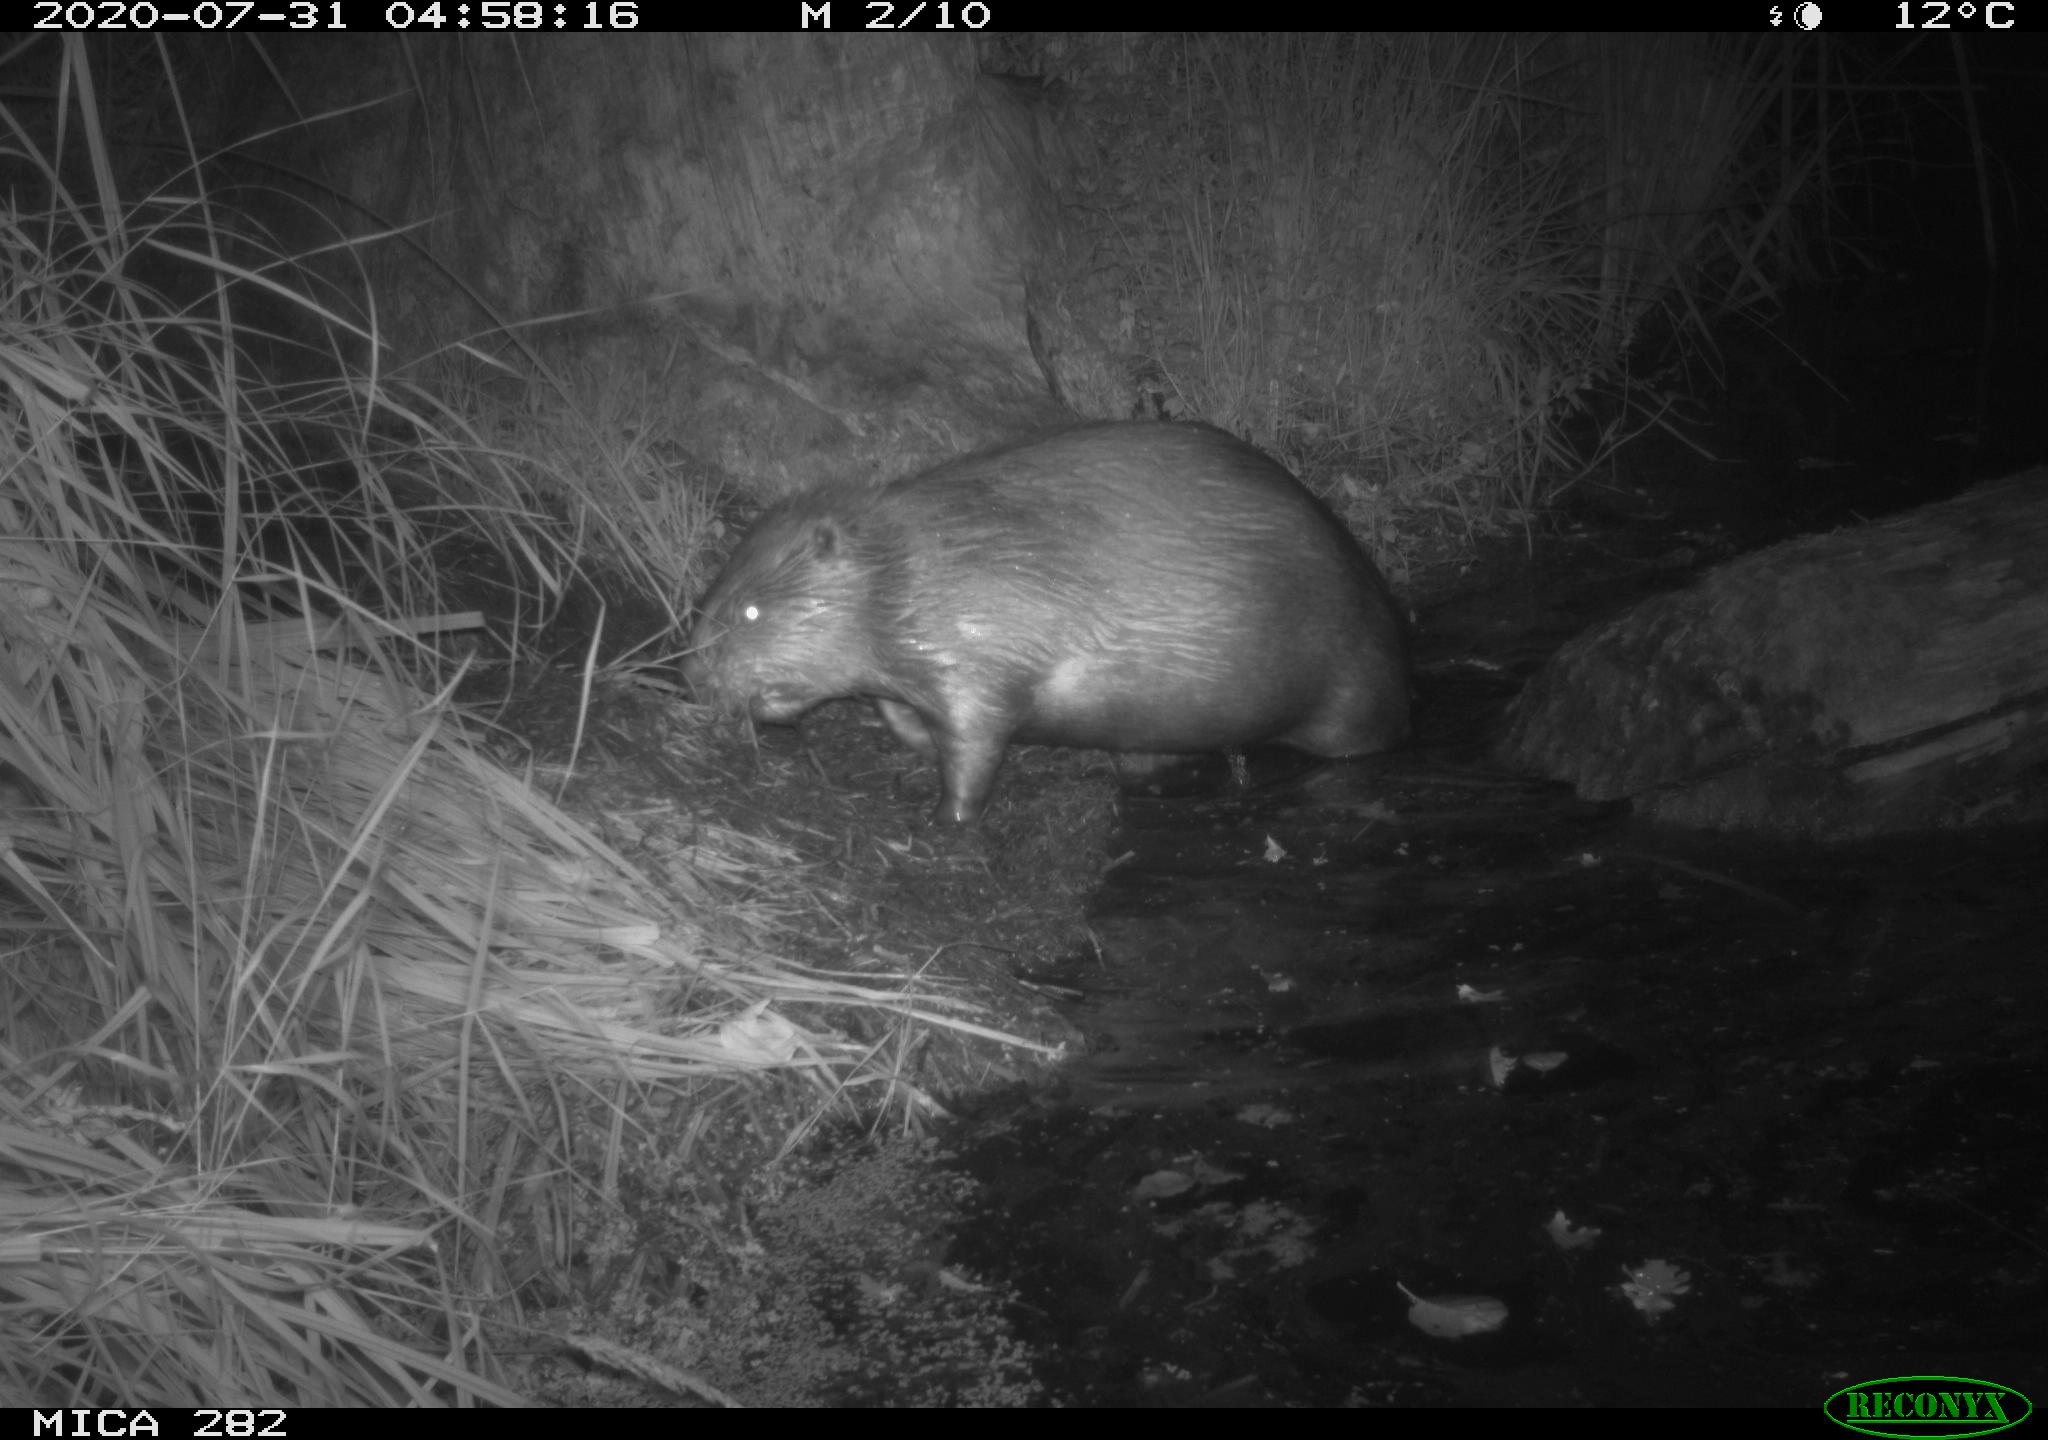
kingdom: Animalia
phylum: Chordata
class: Mammalia
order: Rodentia
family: Castoridae
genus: Castor
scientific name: Castor fiber
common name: Eurasian beaver
